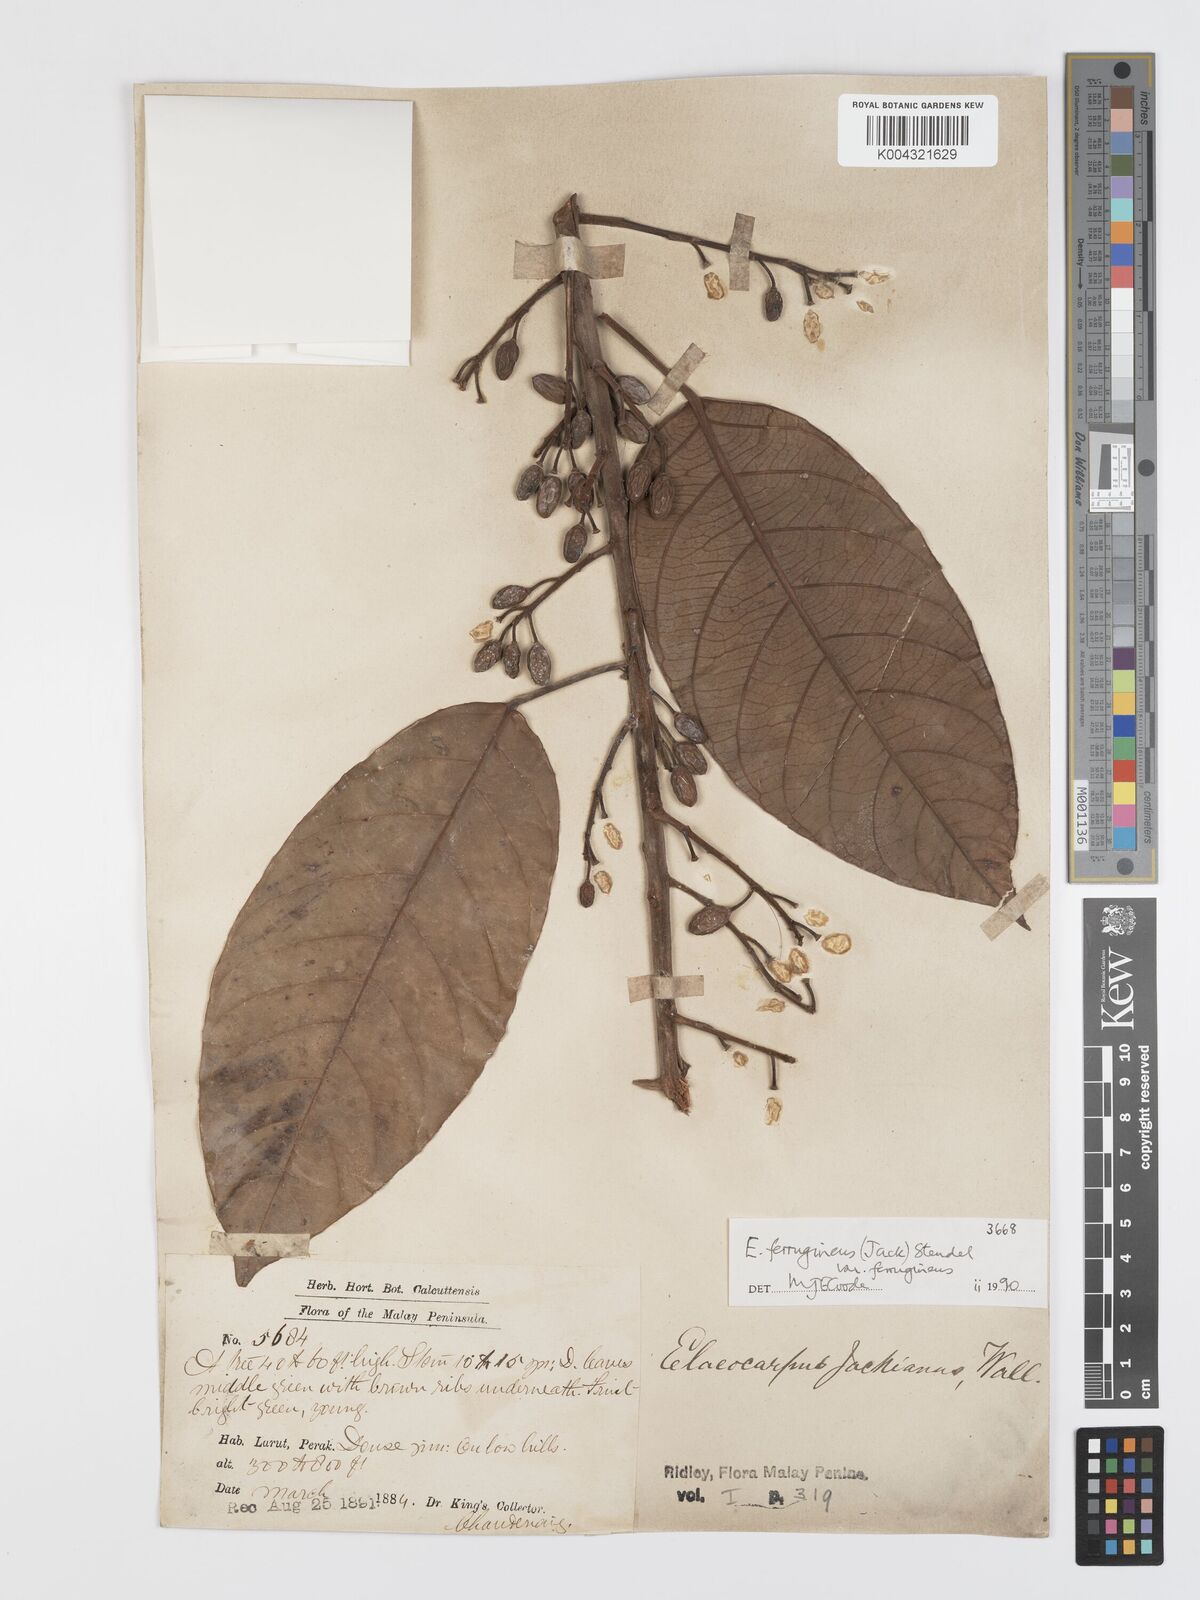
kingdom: Plantae
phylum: Tracheophyta
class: Magnoliopsida
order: Oxalidales
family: Elaeocarpaceae
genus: Elaeocarpus
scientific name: Elaeocarpus ferrugineus
